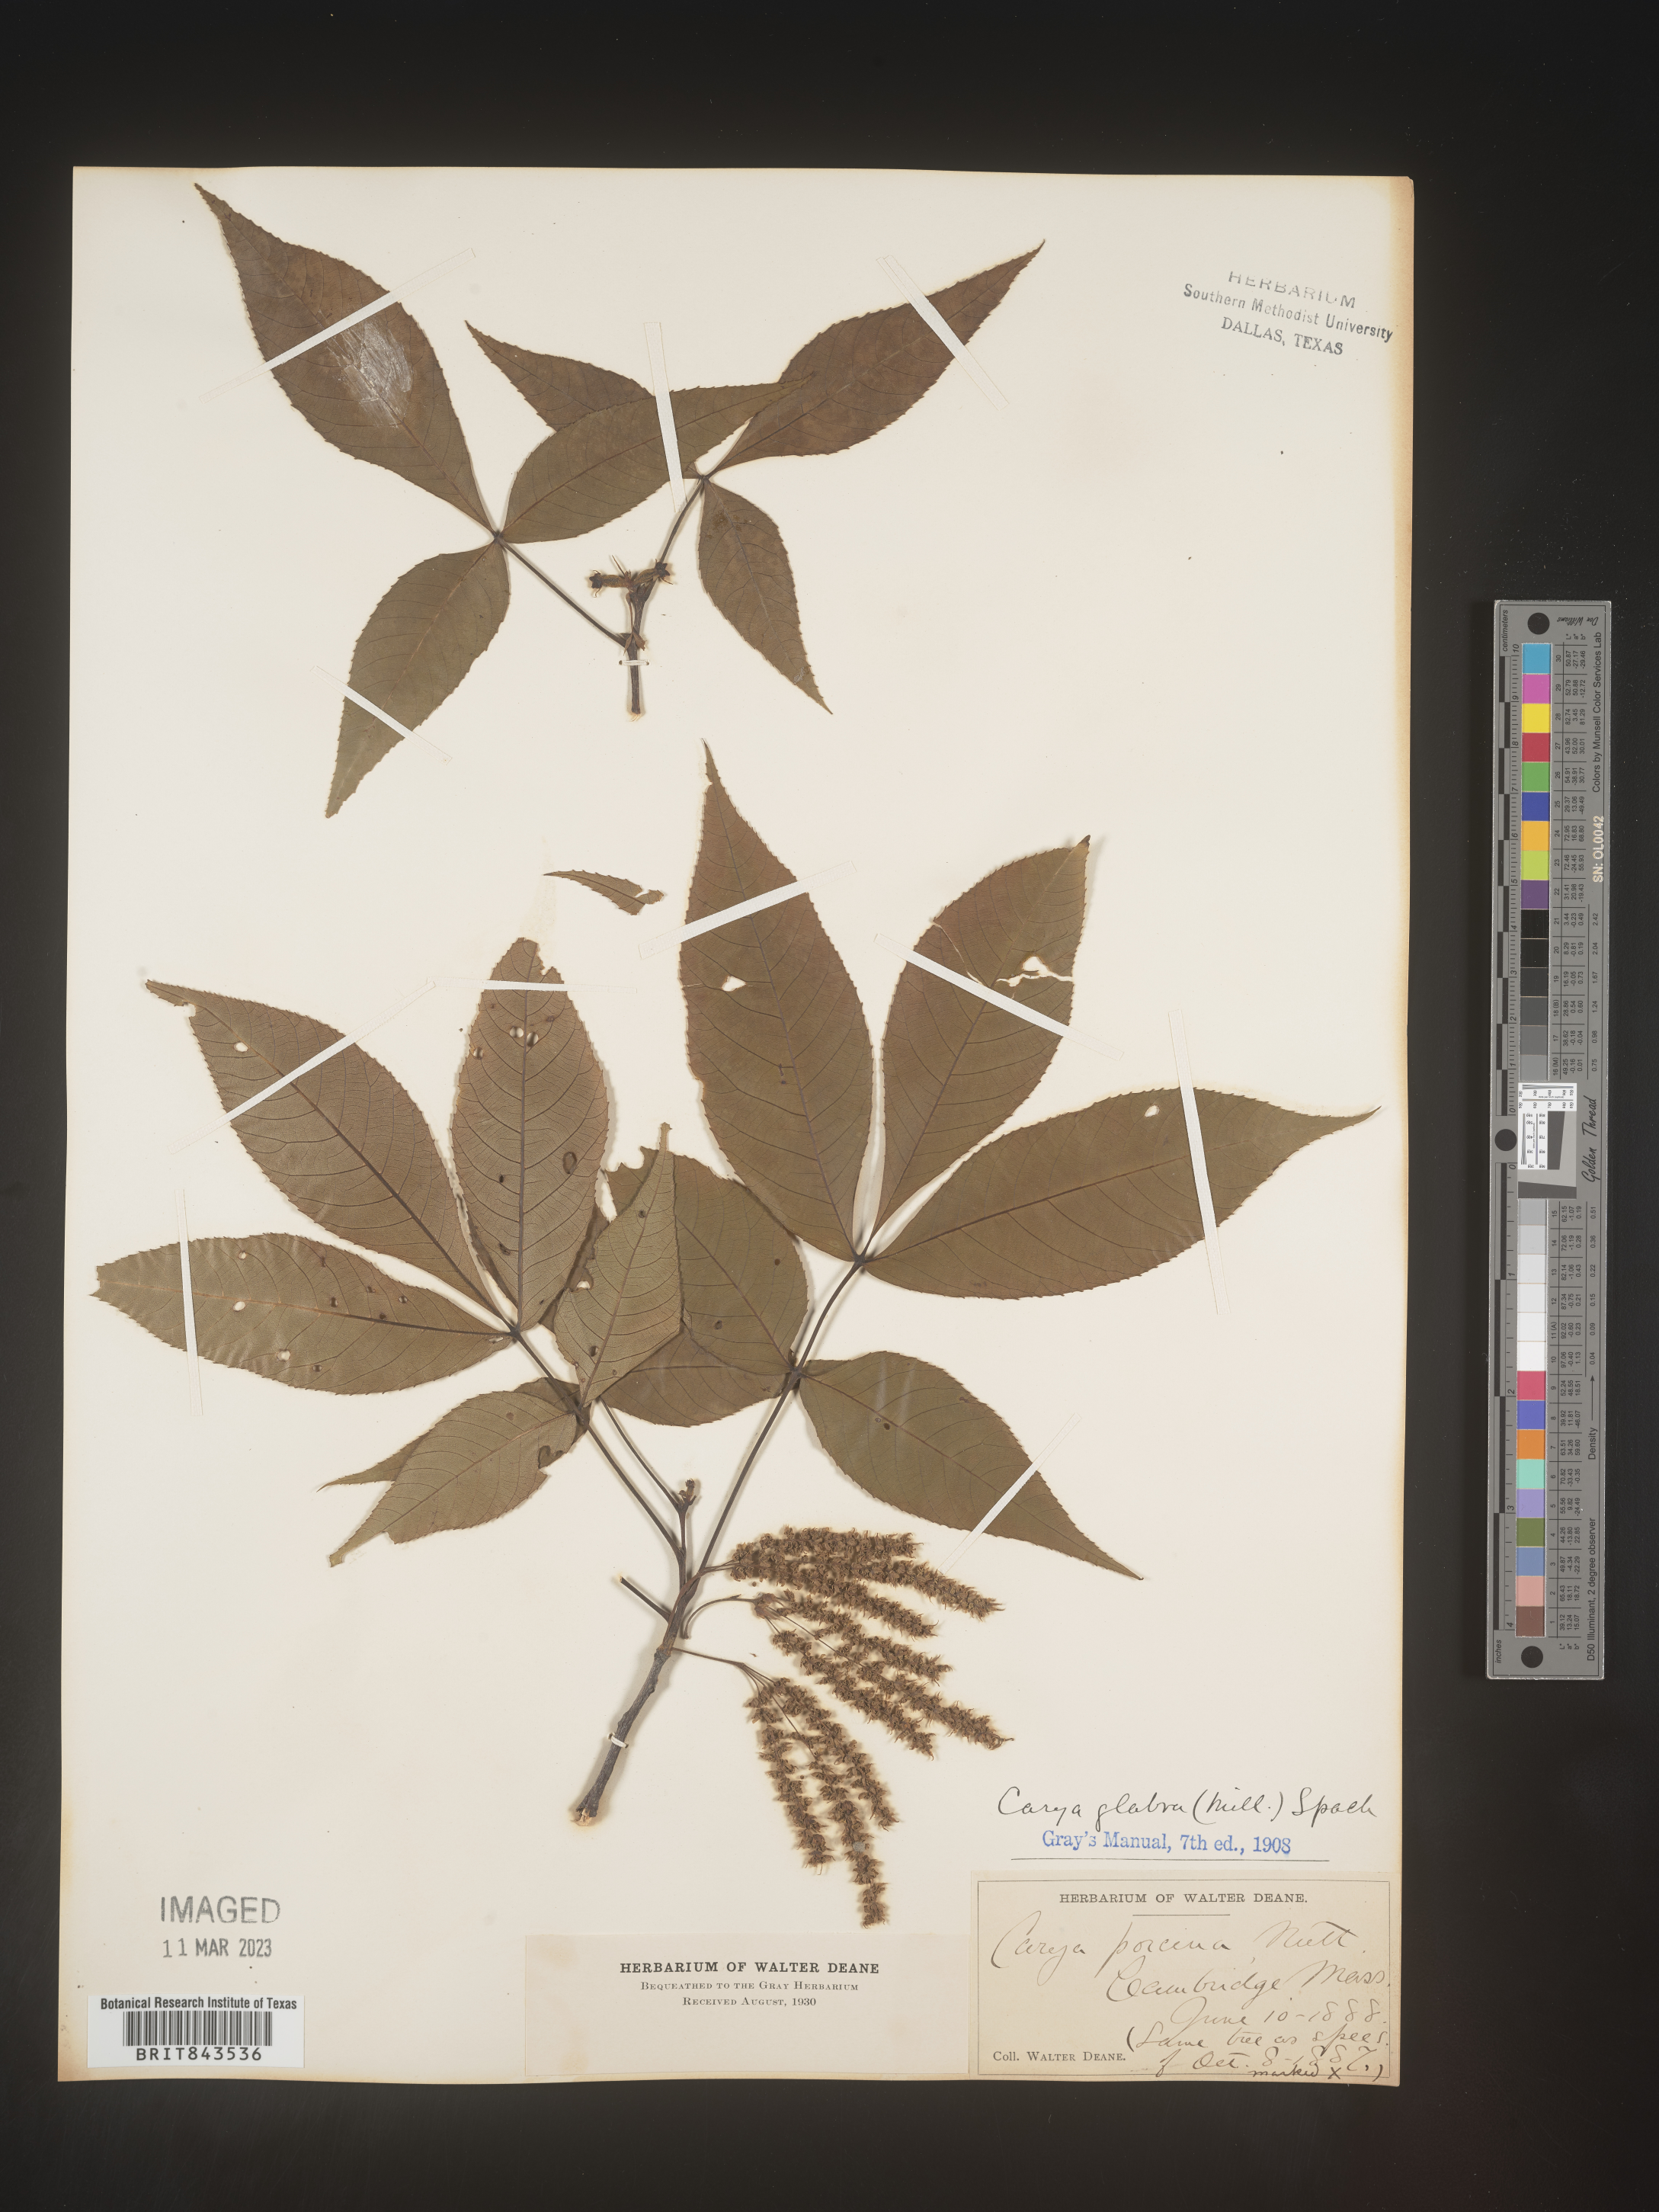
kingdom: Plantae
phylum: Tracheophyta
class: Magnoliopsida
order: Fagales
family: Juglandaceae
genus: Carya
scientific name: Carya glabra
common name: Pignut hickory
